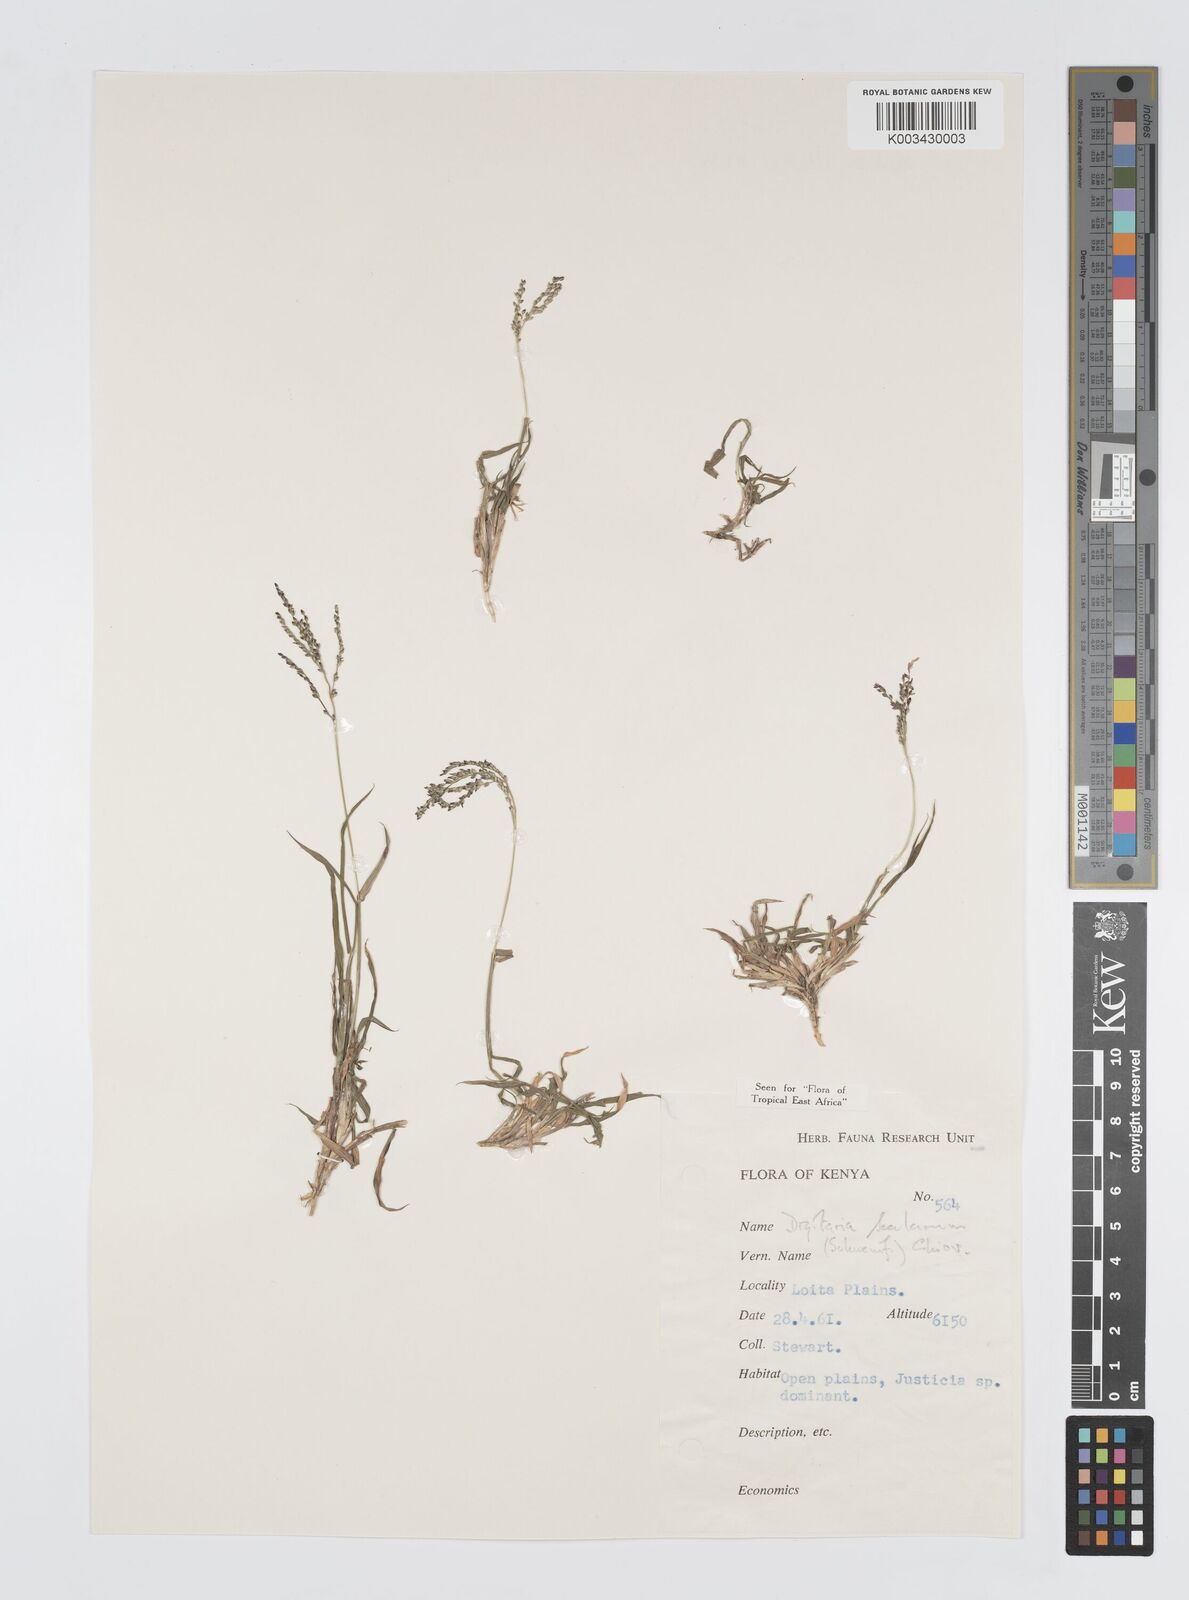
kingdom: Plantae
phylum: Tracheophyta
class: Liliopsida
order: Poales
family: Poaceae
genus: Digitaria
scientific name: Digitaria abyssinica
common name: African couchgrass
